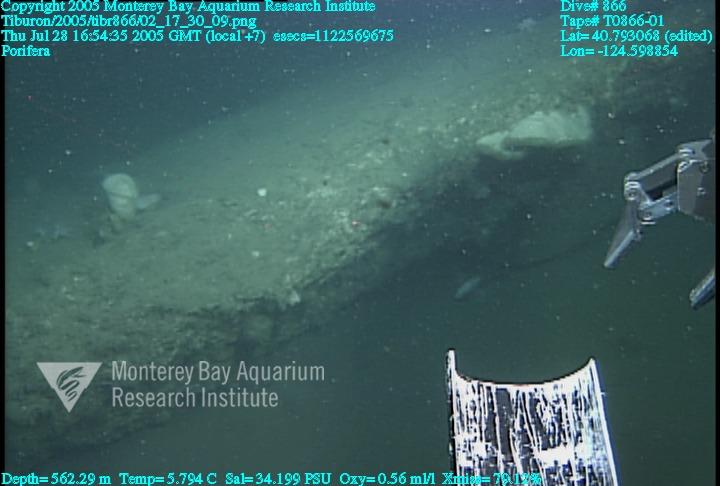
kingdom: Animalia
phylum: Porifera
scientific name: Porifera
